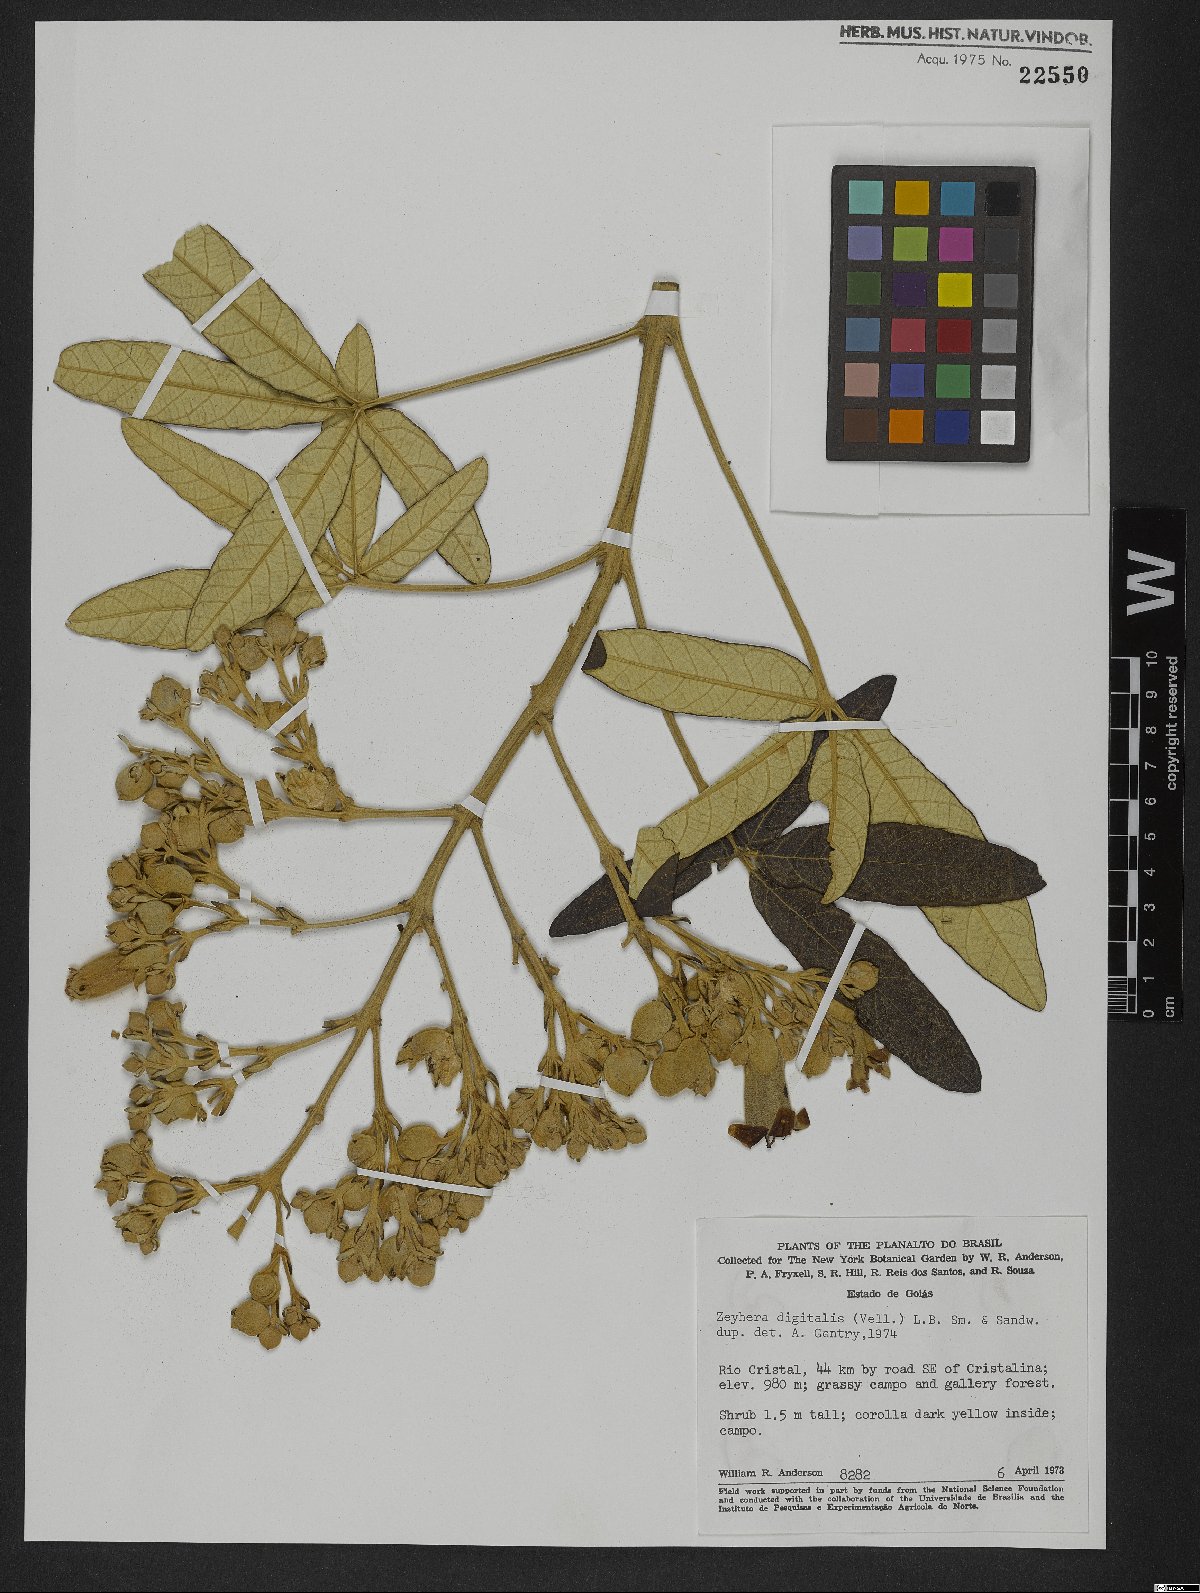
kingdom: Plantae
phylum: Tracheophyta
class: Magnoliopsida
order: Lamiales
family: Bignoniaceae
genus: Zeyheria
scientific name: Zeyheria montana
